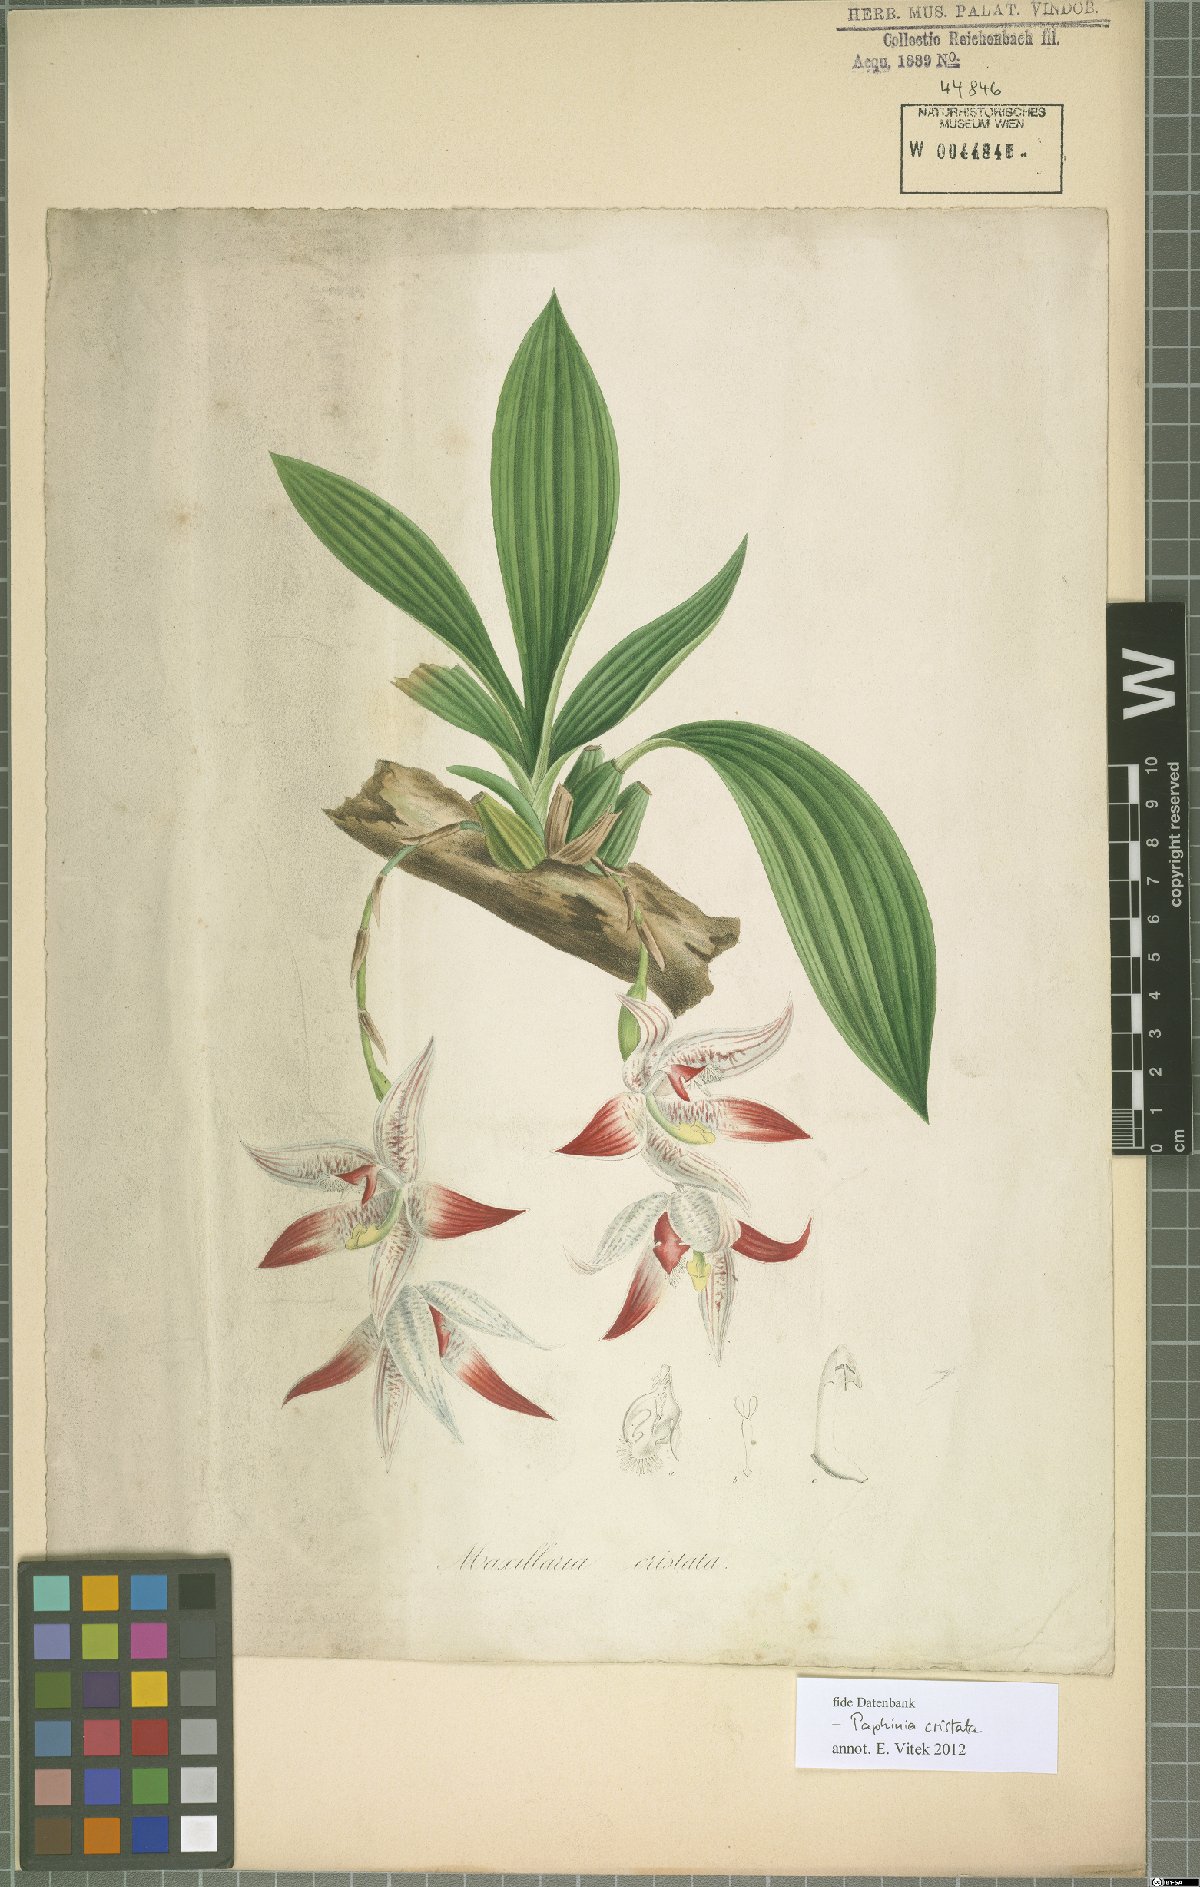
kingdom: Plantae
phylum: Tracheophyta
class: Liliopsida
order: Asparagales
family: Orchidaceae
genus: Paphinia
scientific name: Paphinia cristata
